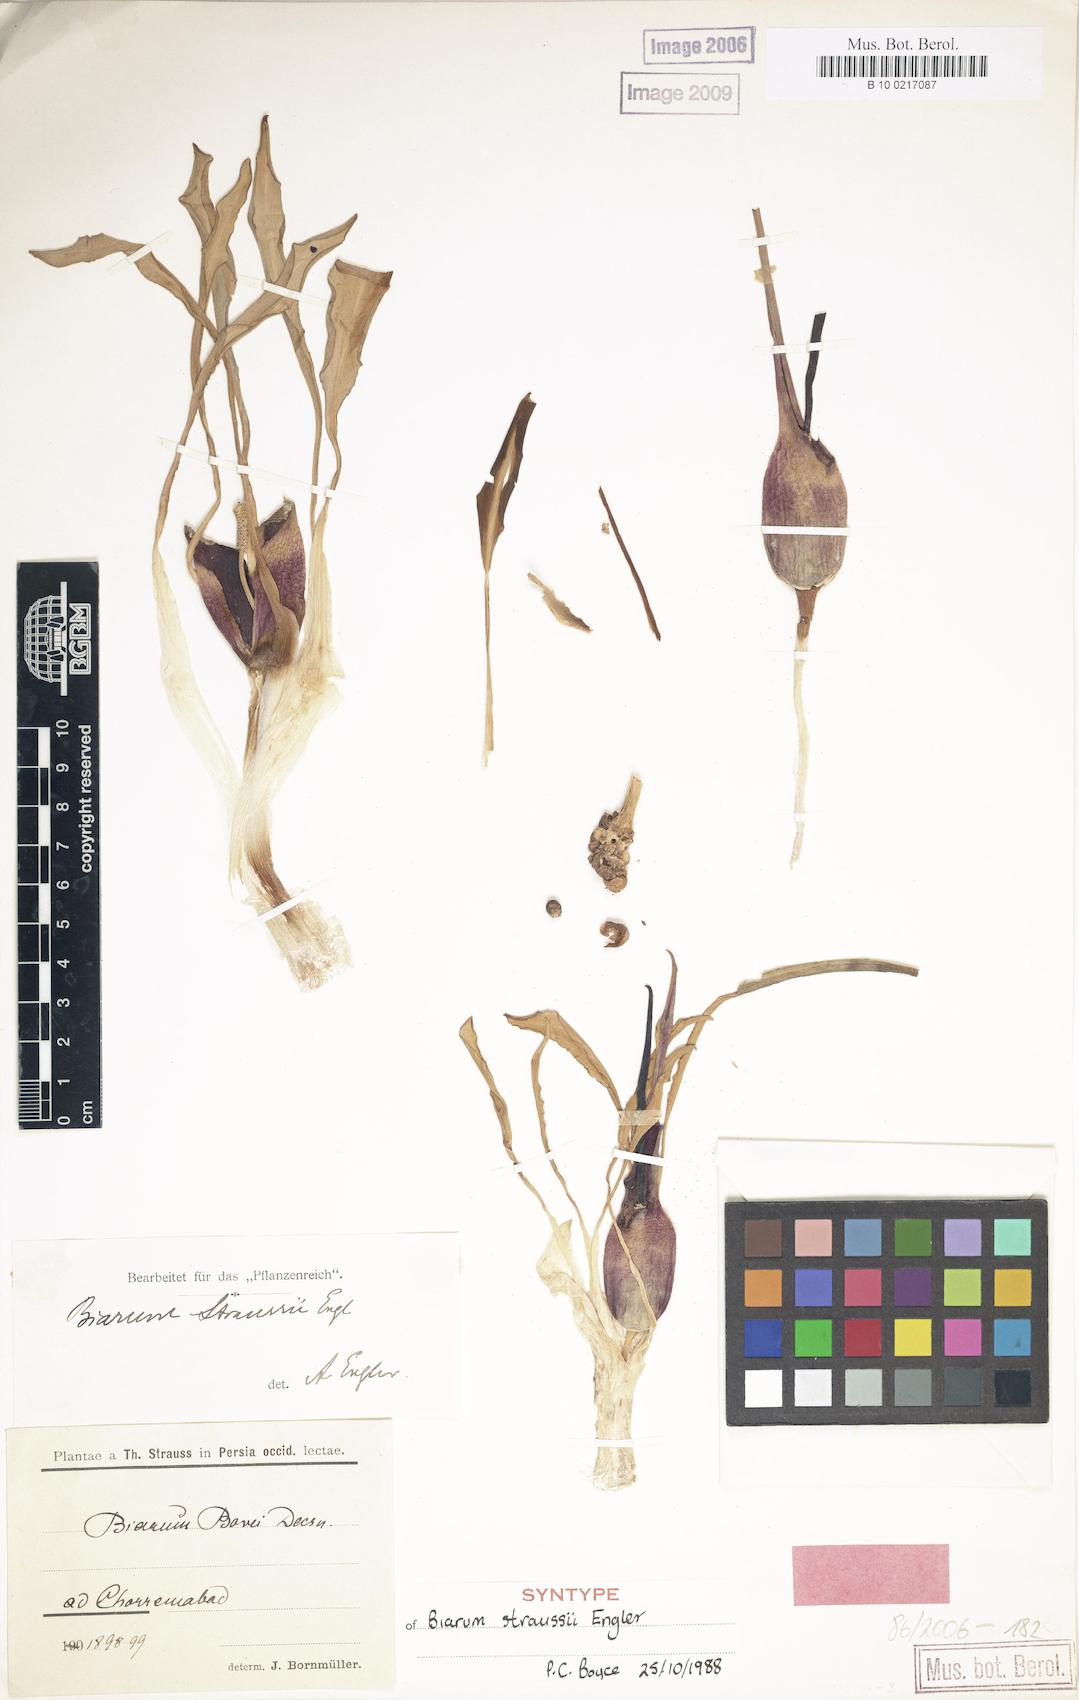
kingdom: Plantae
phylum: Tracheophyta
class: Liliopsida
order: Alismatales
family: Araceae
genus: Biarum
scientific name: Biarum straussii
